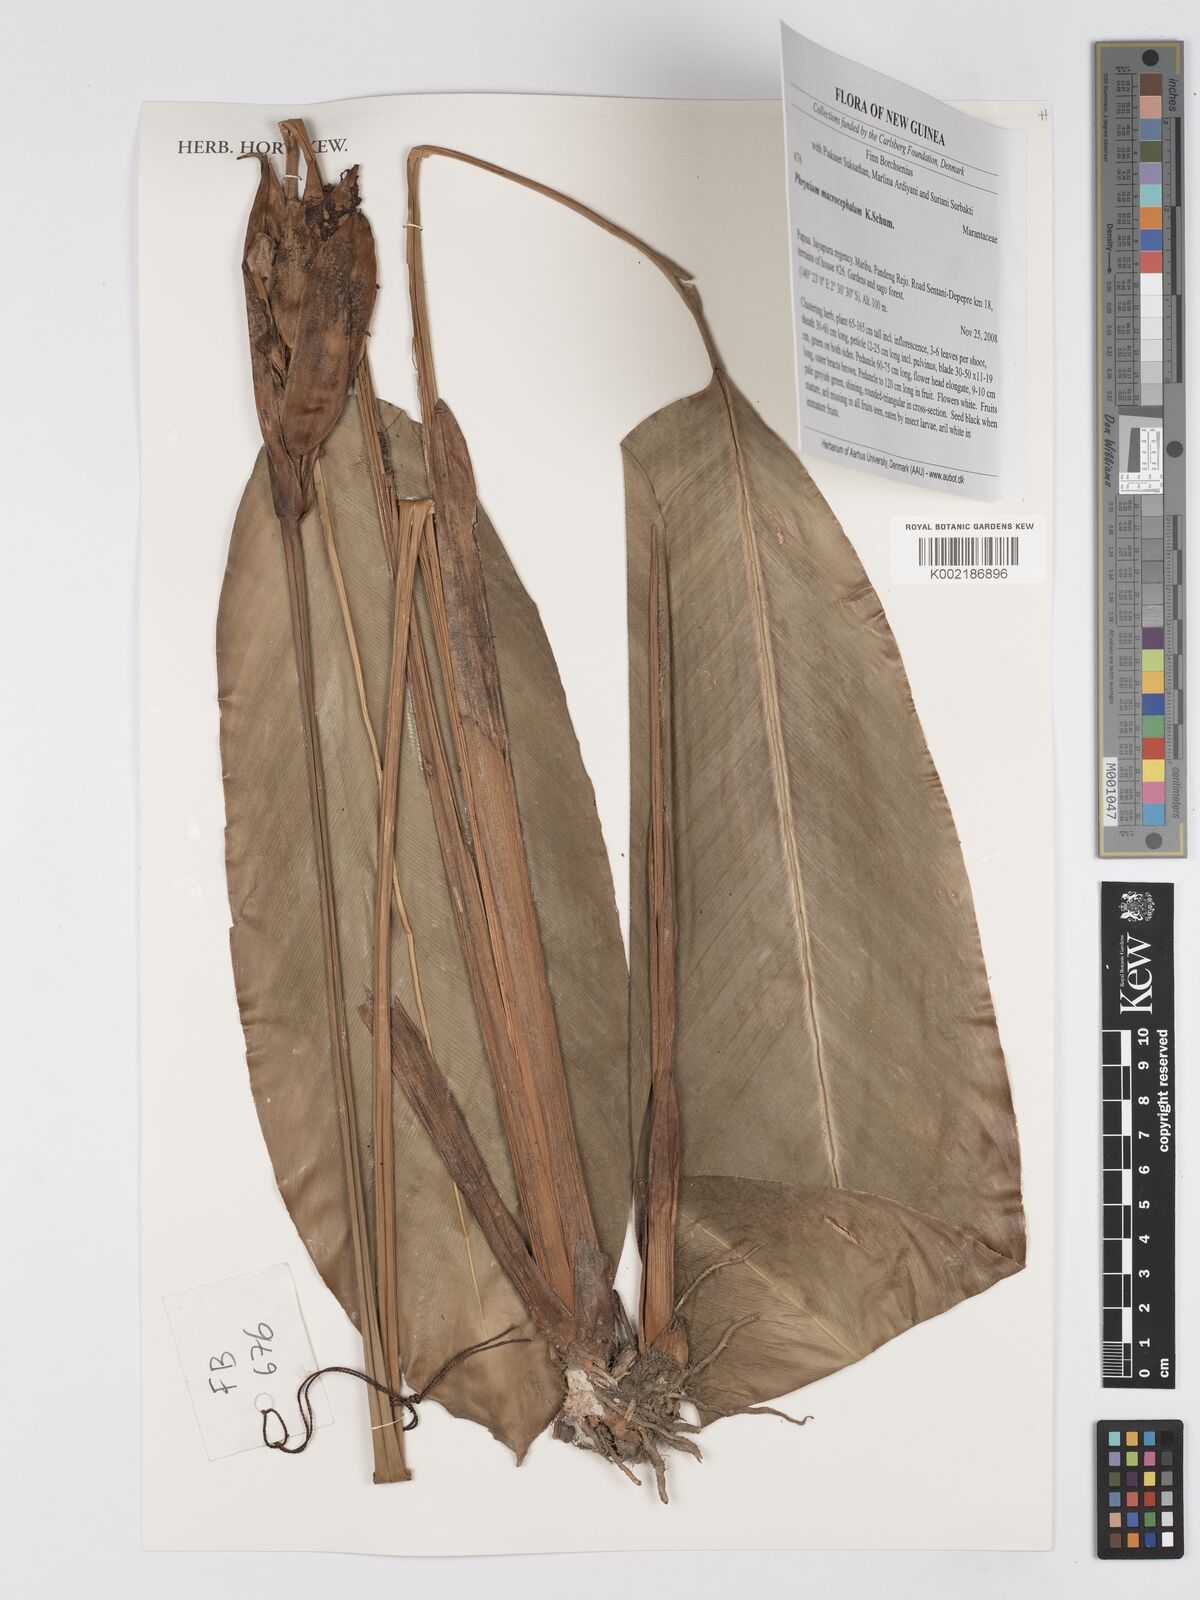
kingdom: Plantae
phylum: Tracheophyta
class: Liliopsida
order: Zingiberales
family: Marantaceae
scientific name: Marantaceae
